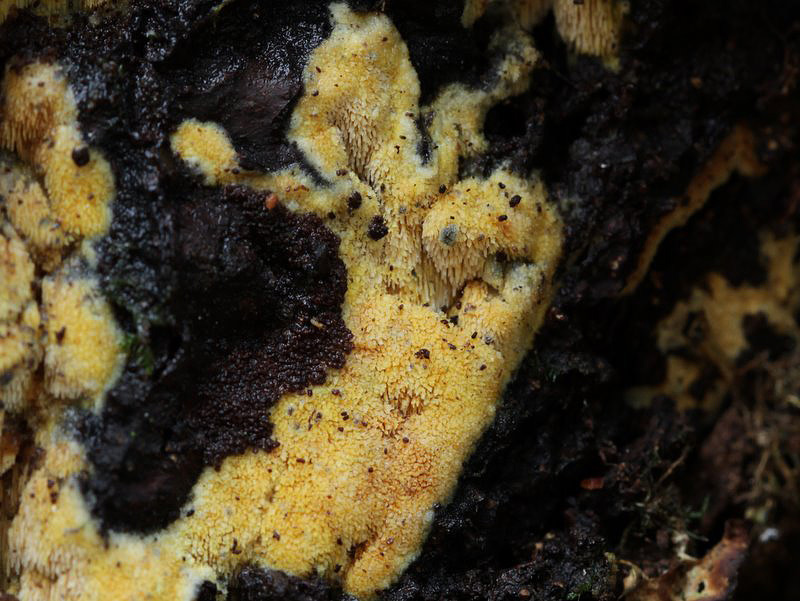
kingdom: Fungi
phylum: Basidiomycota
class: Agaricomycetes
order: Polyporales
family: Meruliaceae
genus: Mycoacia
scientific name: Mycoacia uda
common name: citrongul vokspig
